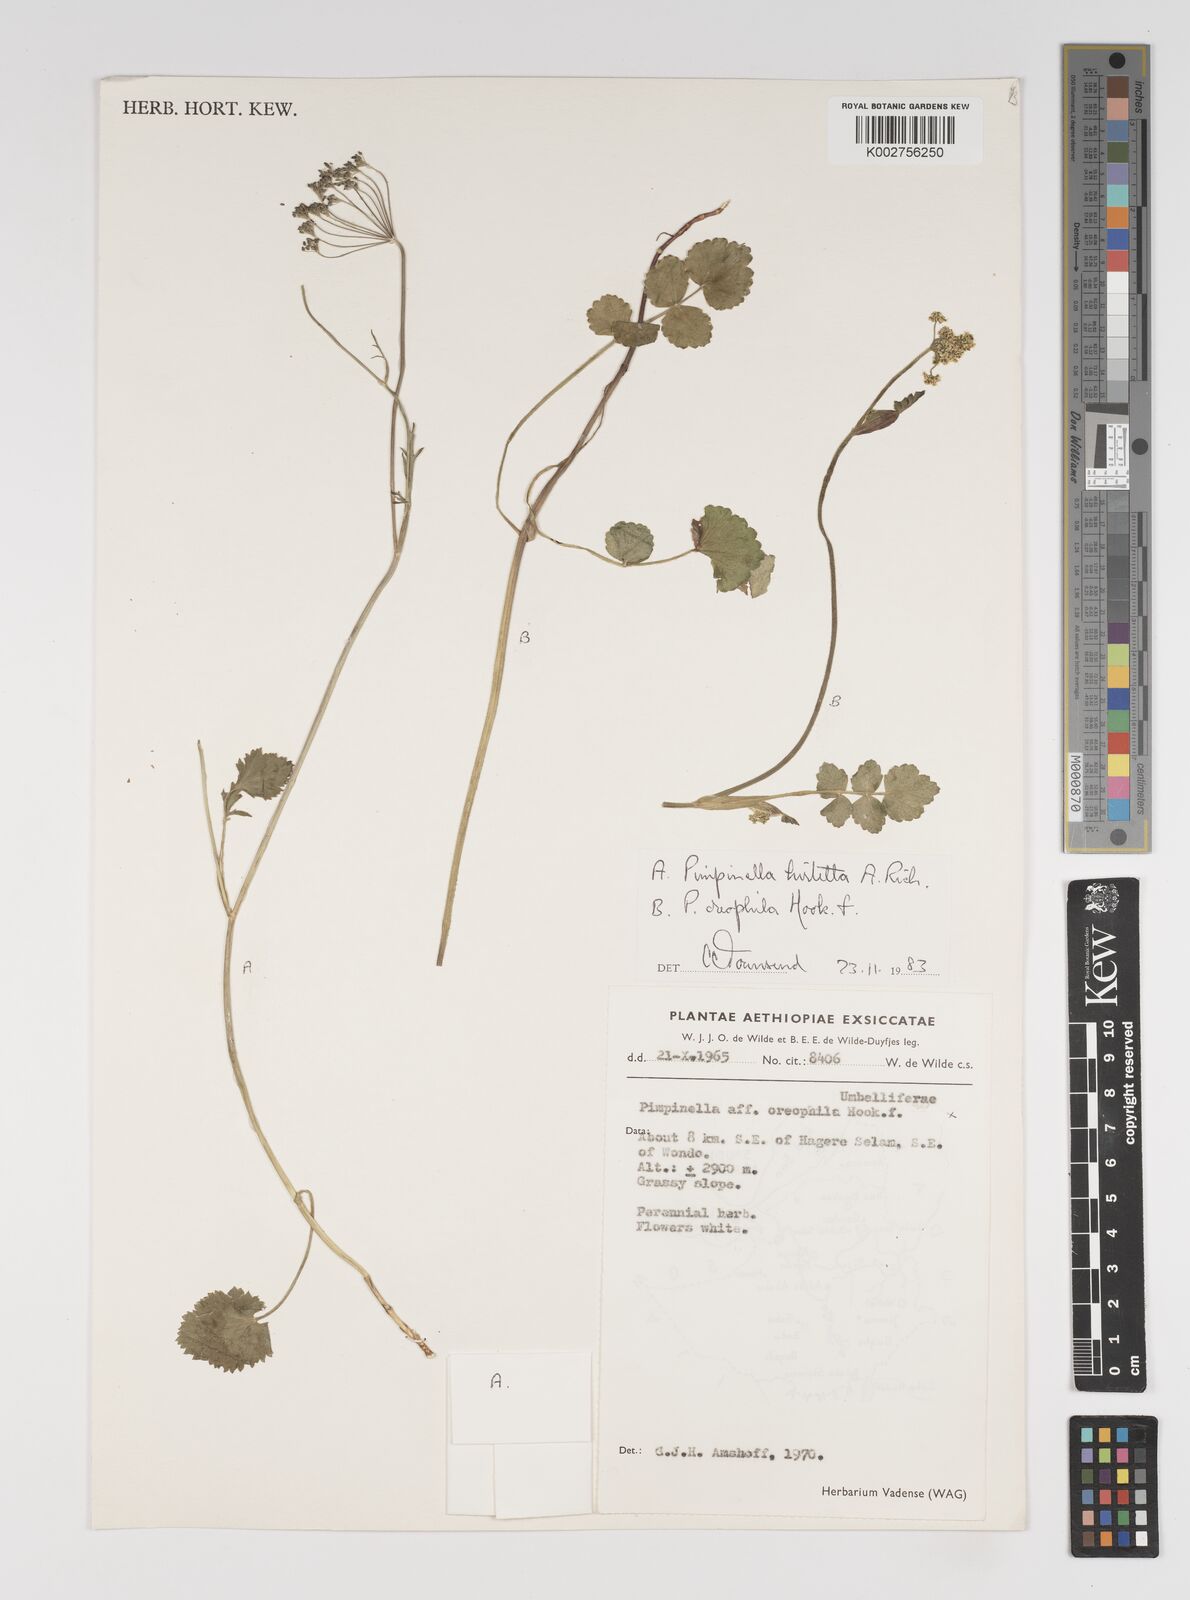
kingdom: Plantae
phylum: Tracheophyta
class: Magnoliopsida
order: Apiales
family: Apiaceae
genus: Pimpinella
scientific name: Pimpinella hirtella
